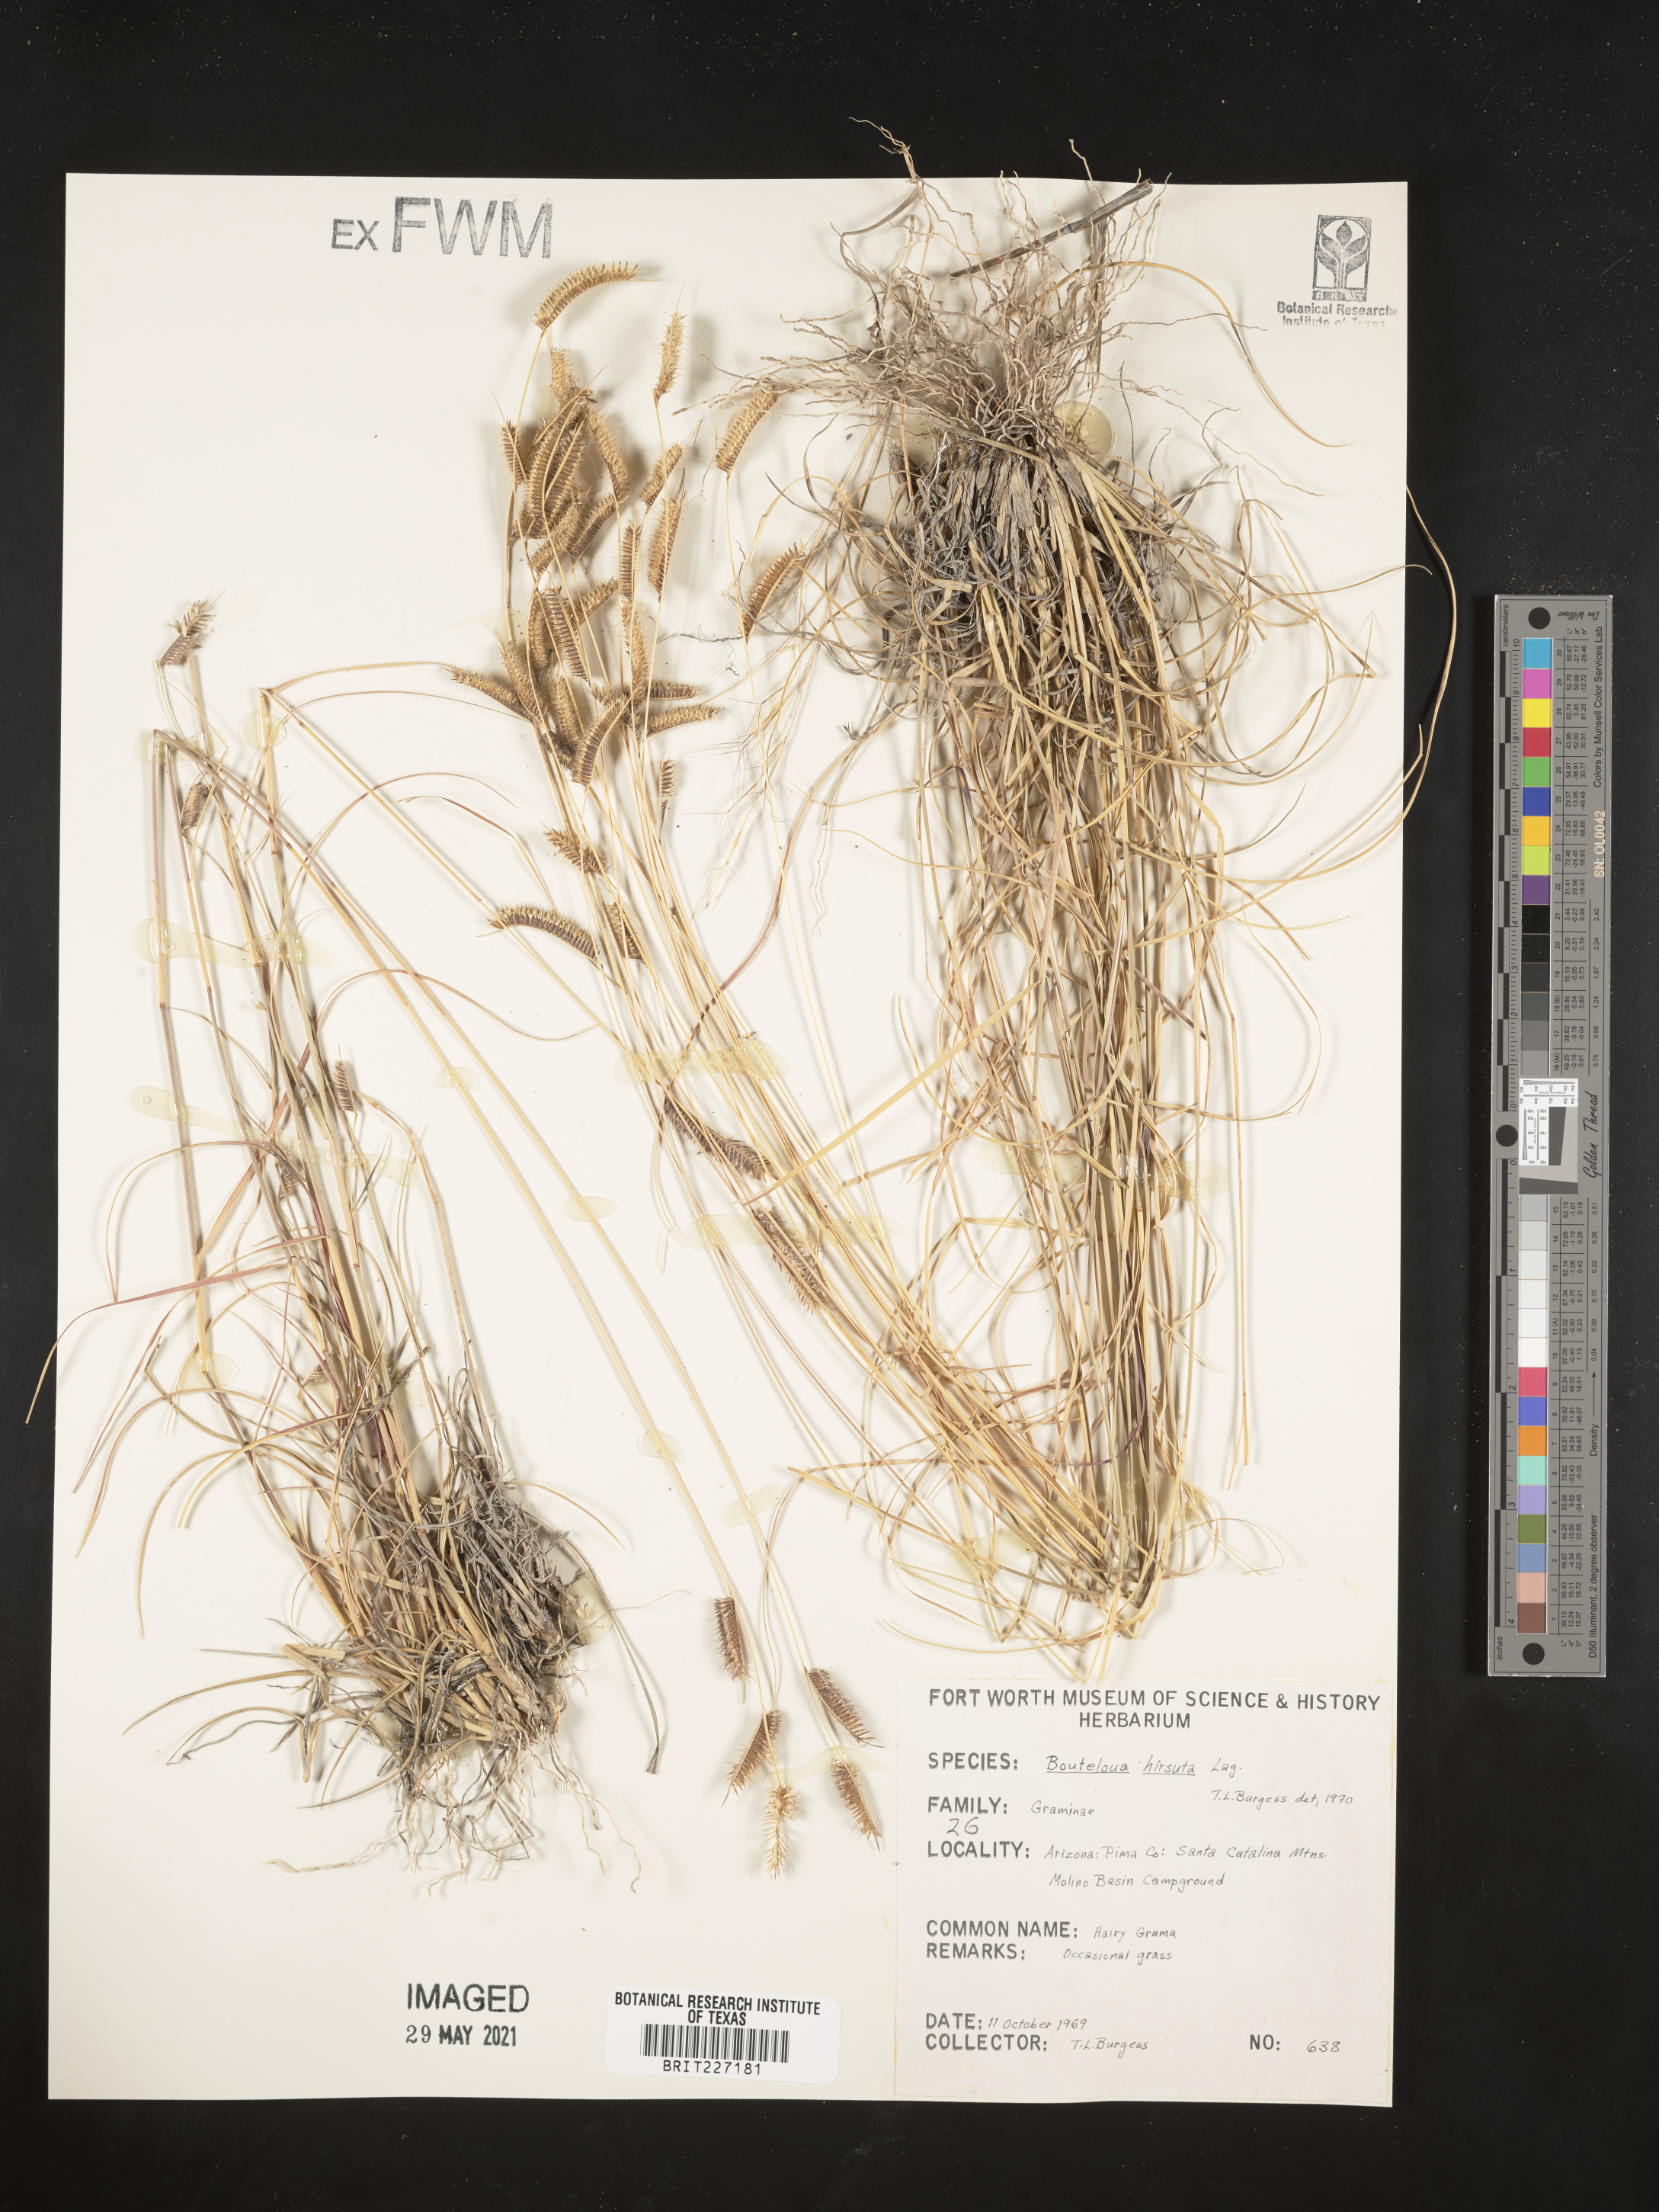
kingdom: Plantae
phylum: Tracheophyta
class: Liliopsida
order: Poales
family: Poaceae
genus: Bouteloua
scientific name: Bouteloua hirsuta
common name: Hairy grama
